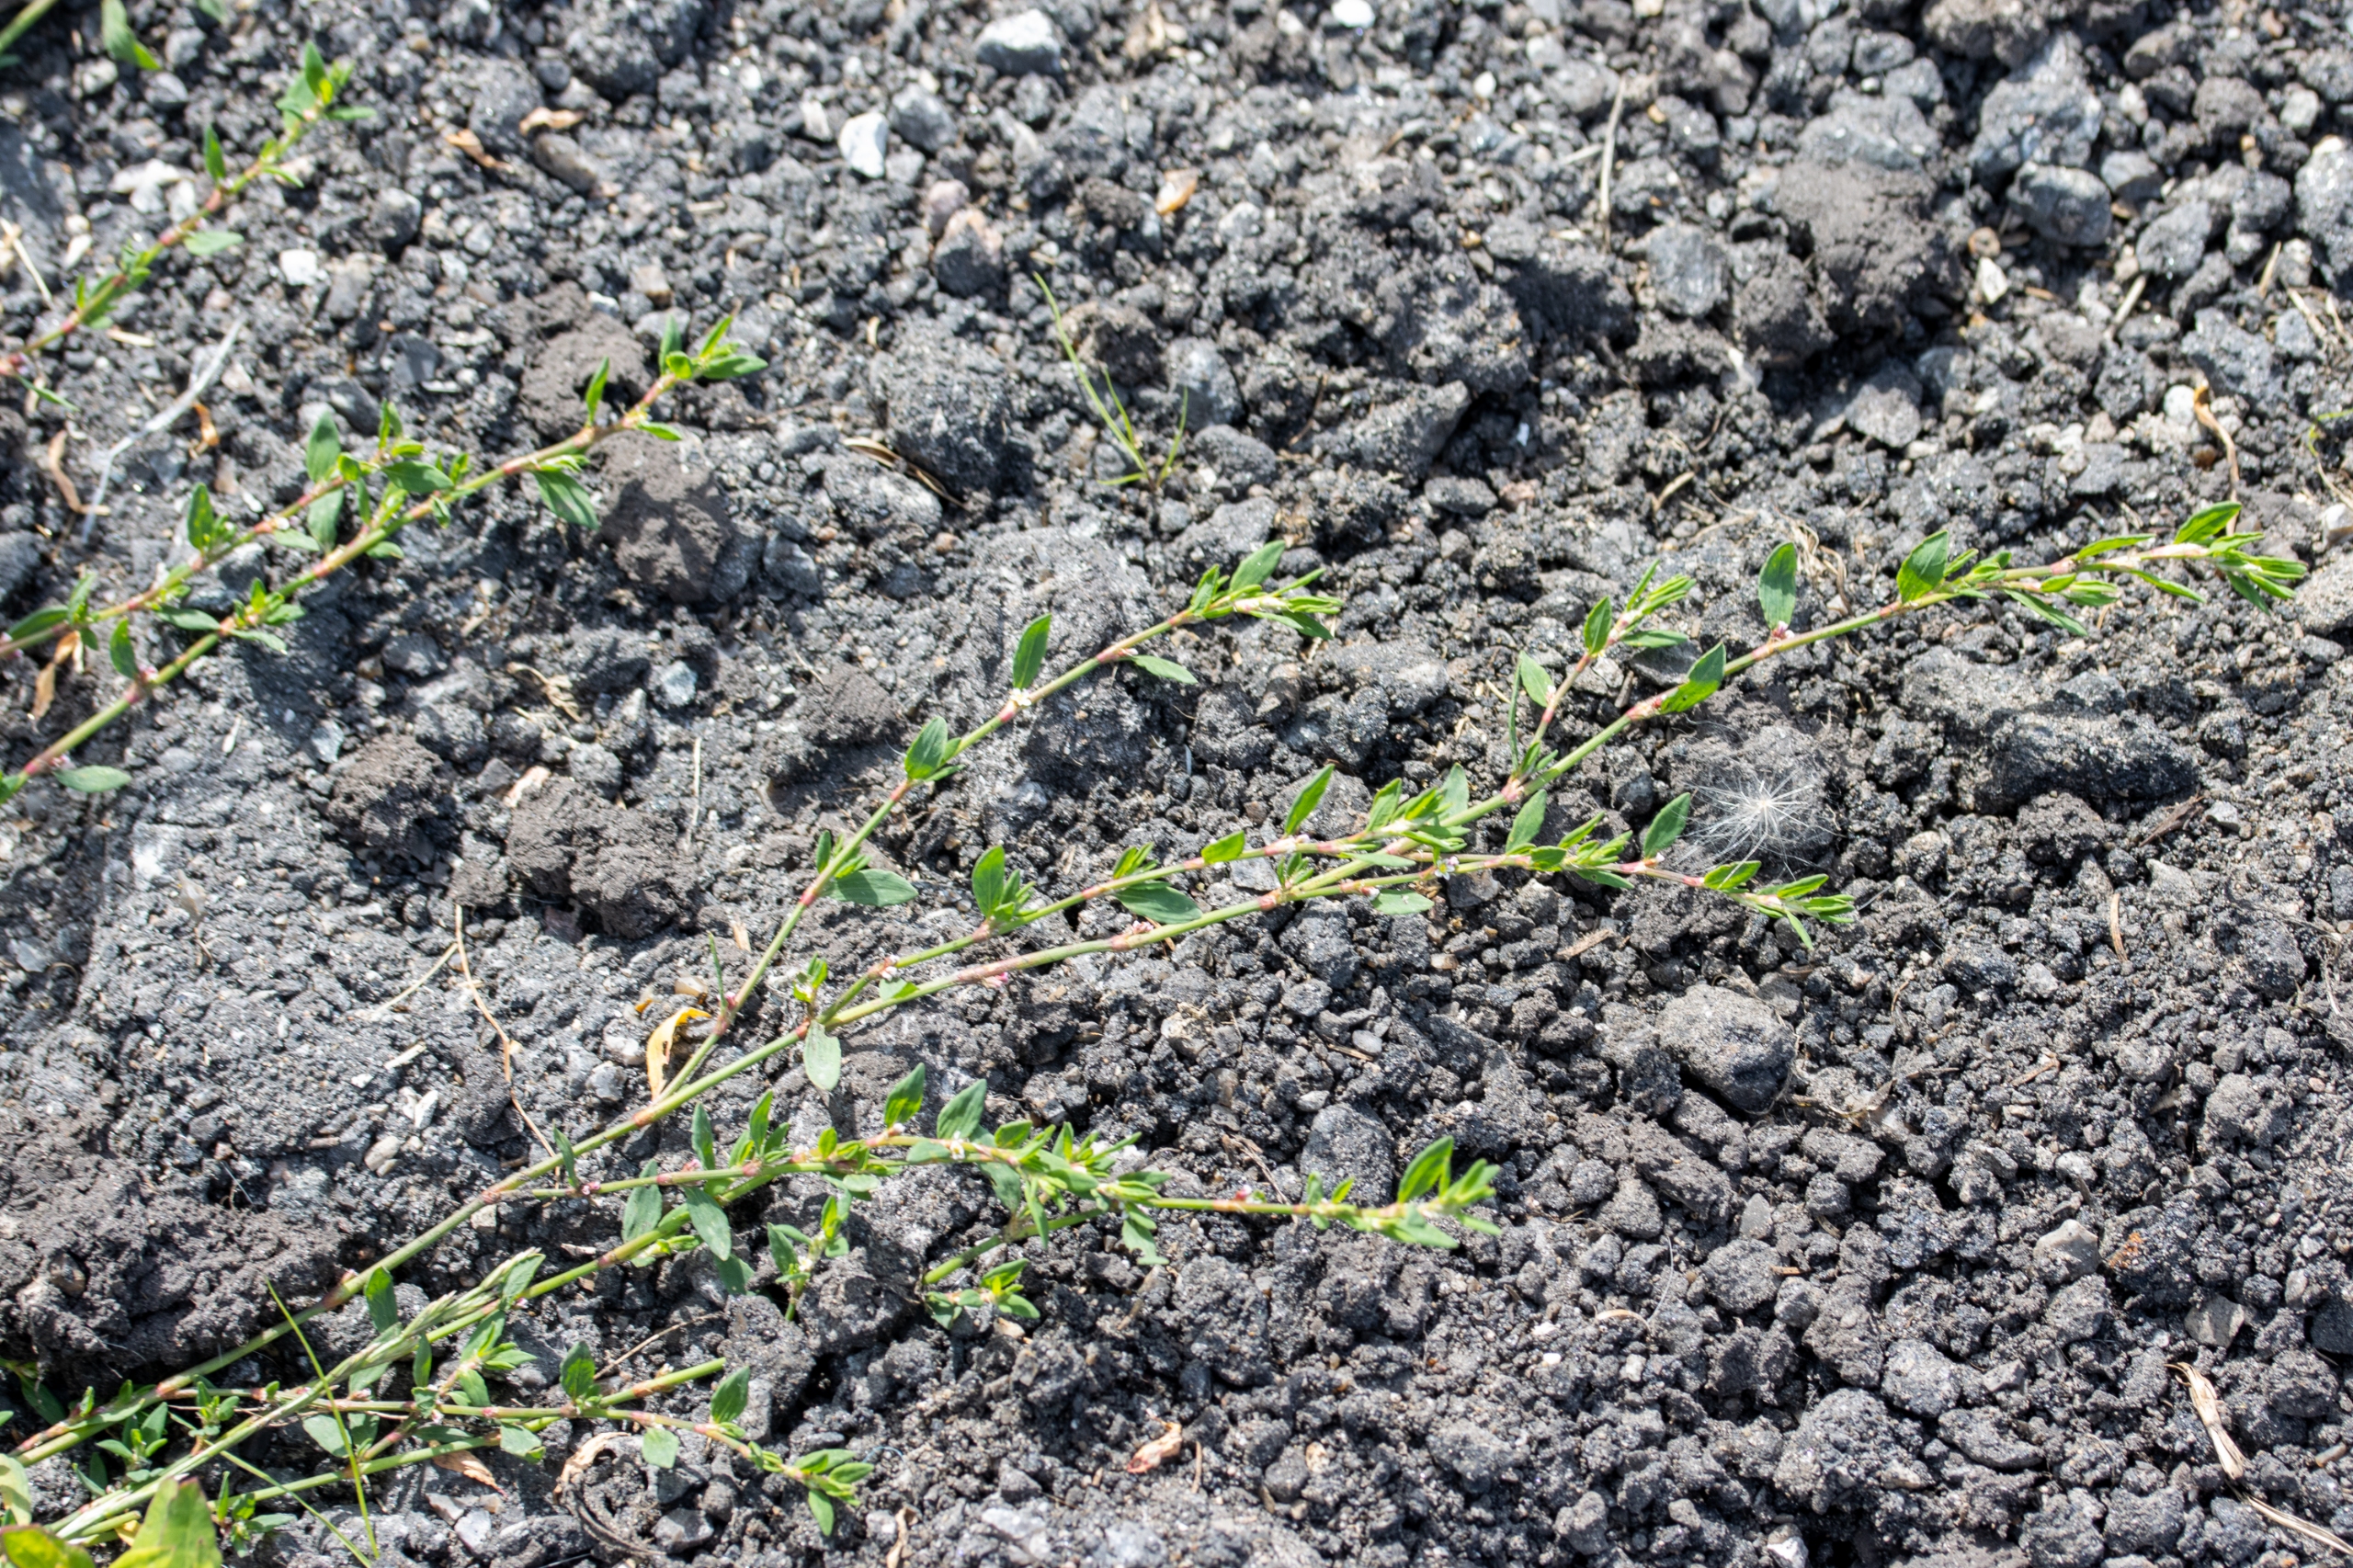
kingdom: Plantae
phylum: Tracheophyta
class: Magnoliopsida
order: Caryophyllales
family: Polygonaceae
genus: Polygonum
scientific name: Polygonum aviculare
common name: Smalbladet vej-pileurt
